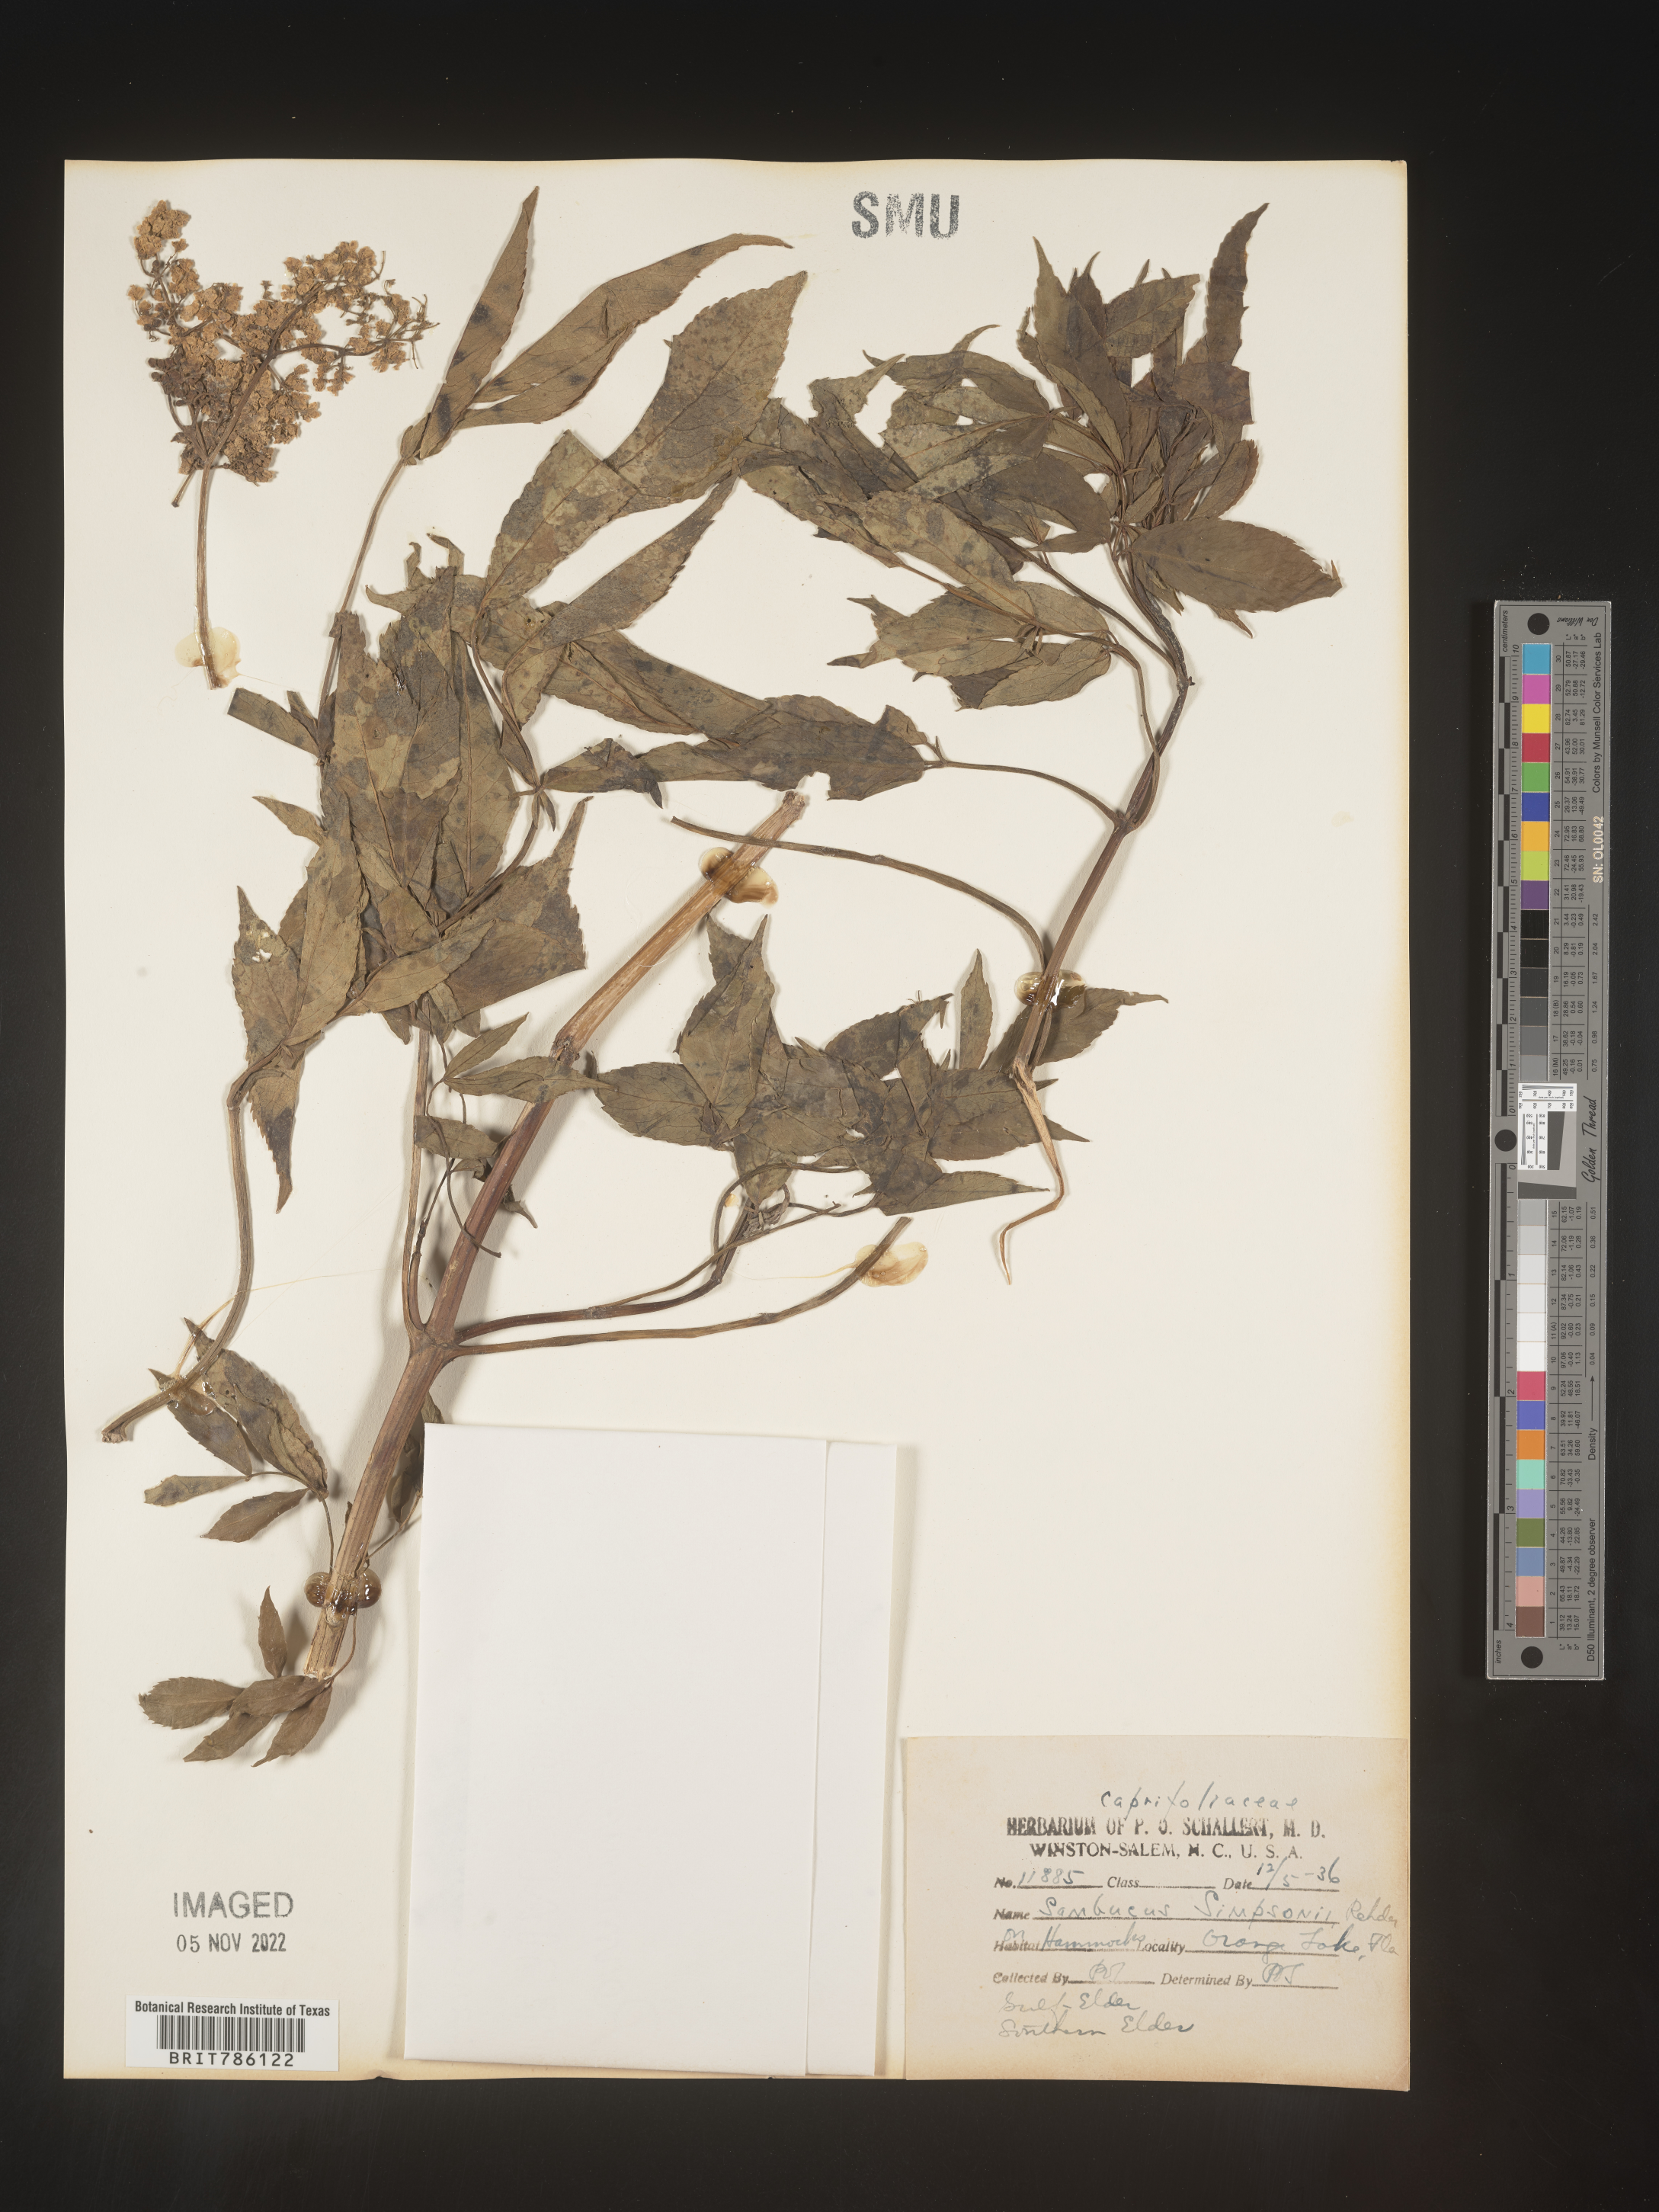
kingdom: Plantae
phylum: Tracheophyta
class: Magnoliopsida
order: Dipsacales
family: Viburnaceae
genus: Sambucus
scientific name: Sambucus
